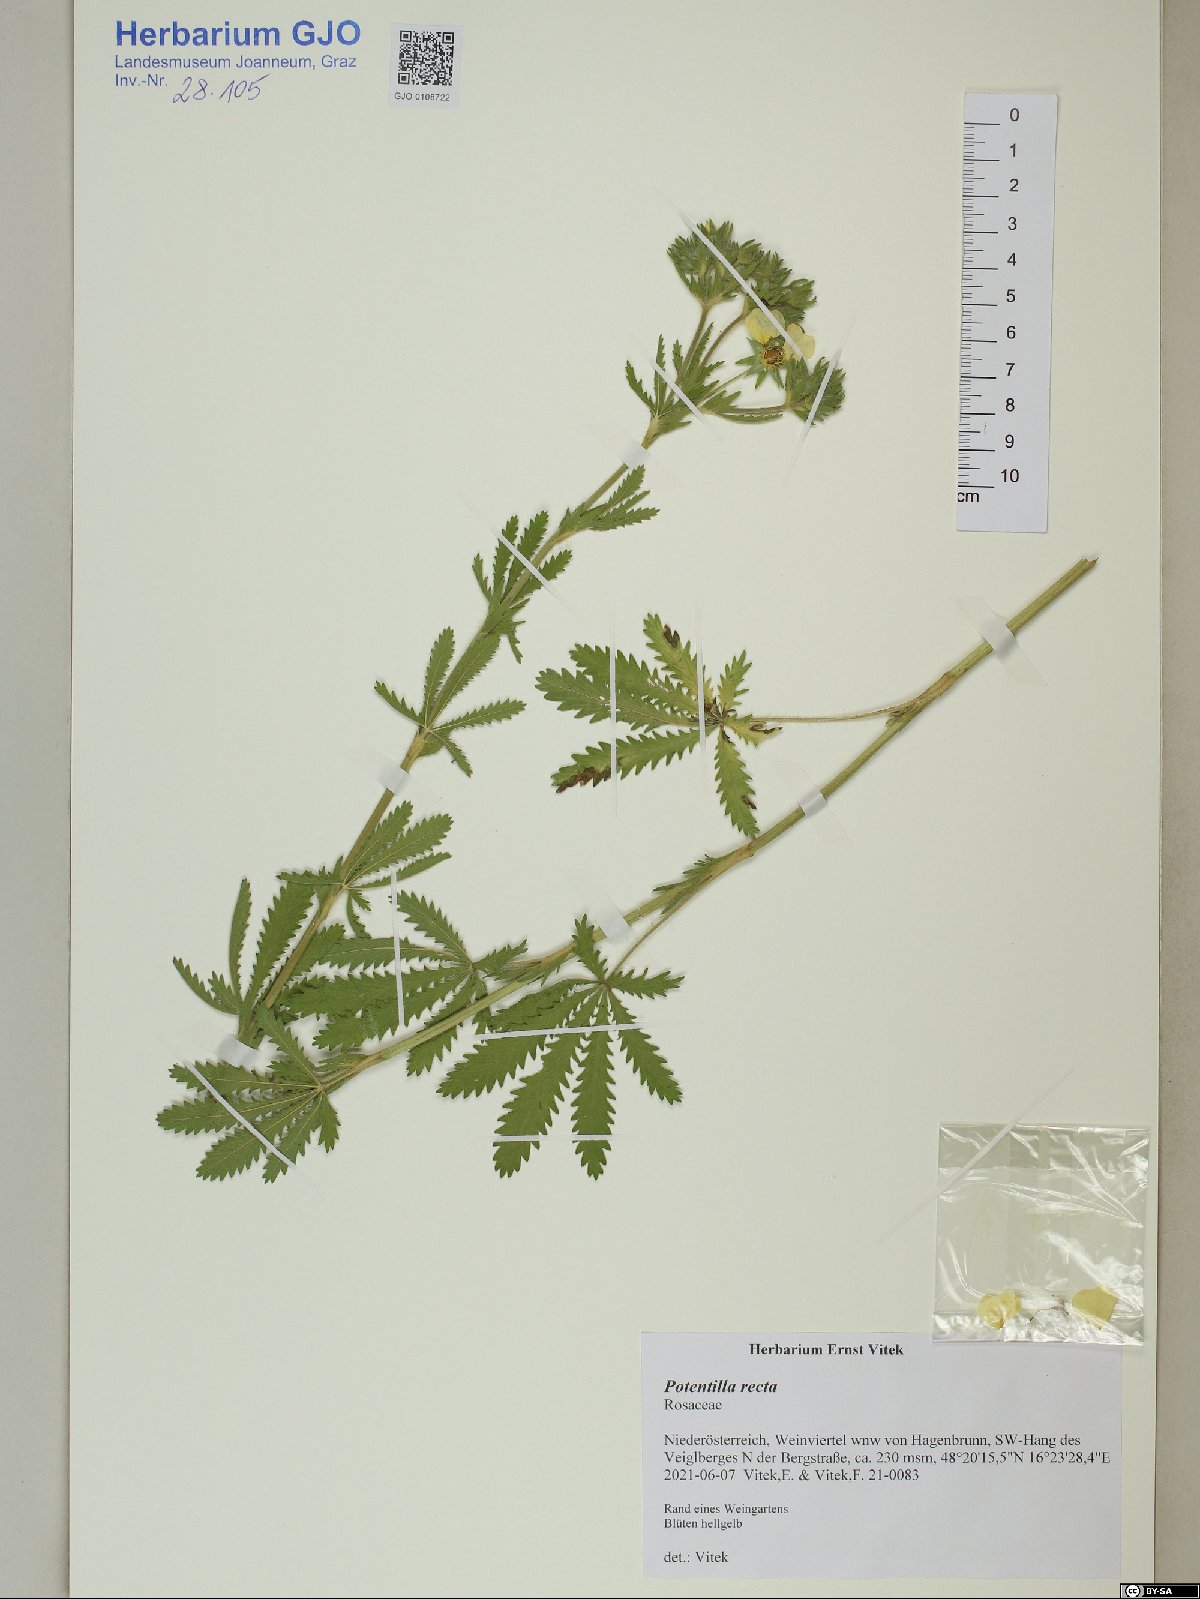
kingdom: Plantae
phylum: Tracheophyta
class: Magnoliopsida
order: Rosales
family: Rosaceae
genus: Potentilla
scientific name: Potentilla recta
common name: Sulphur cinquefoil
